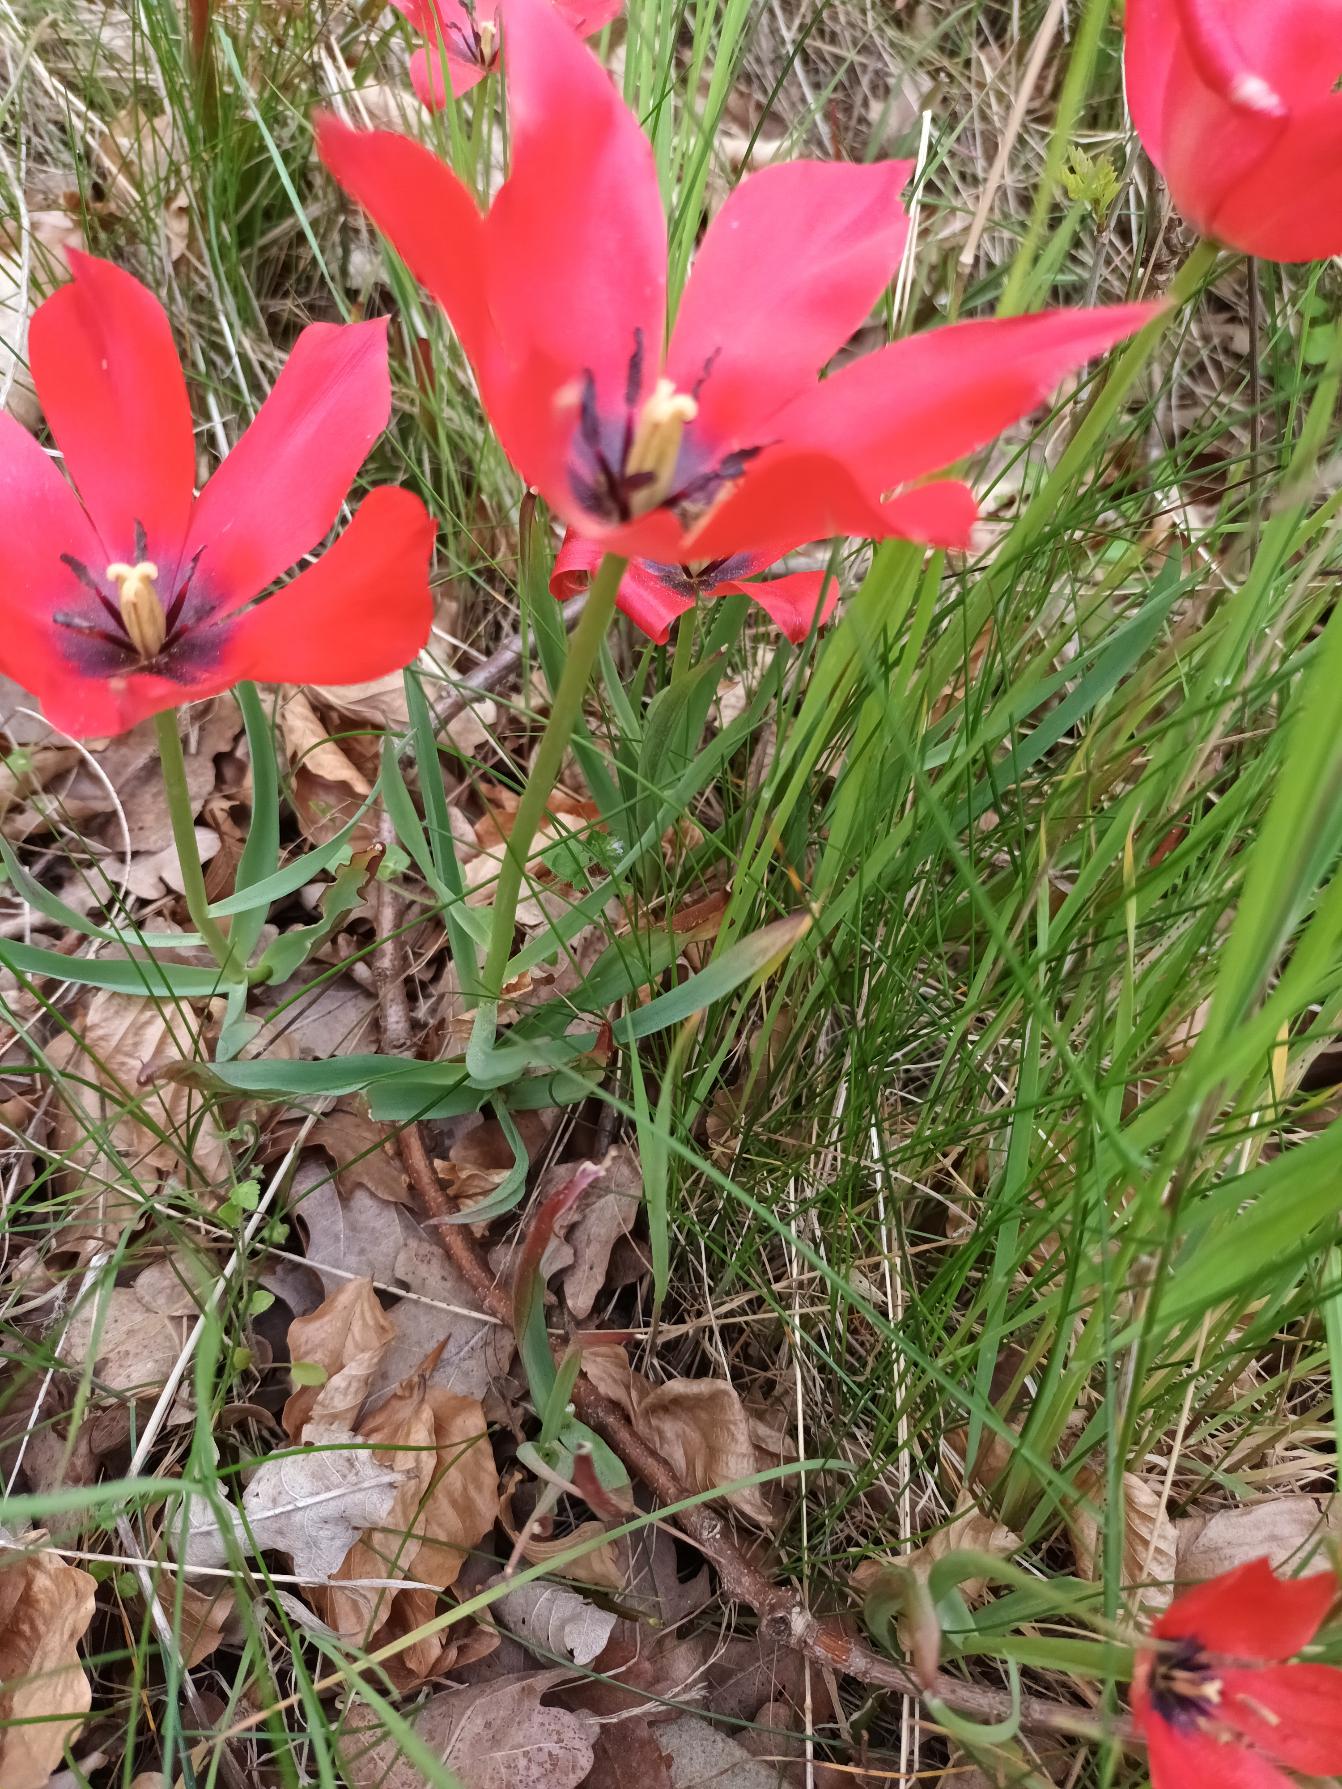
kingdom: Plantae
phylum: Tracheophyta
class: Liliopsida
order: Liliales
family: Liliaceae
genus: Tulipa
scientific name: Tulipa
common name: Tulipanslægten
